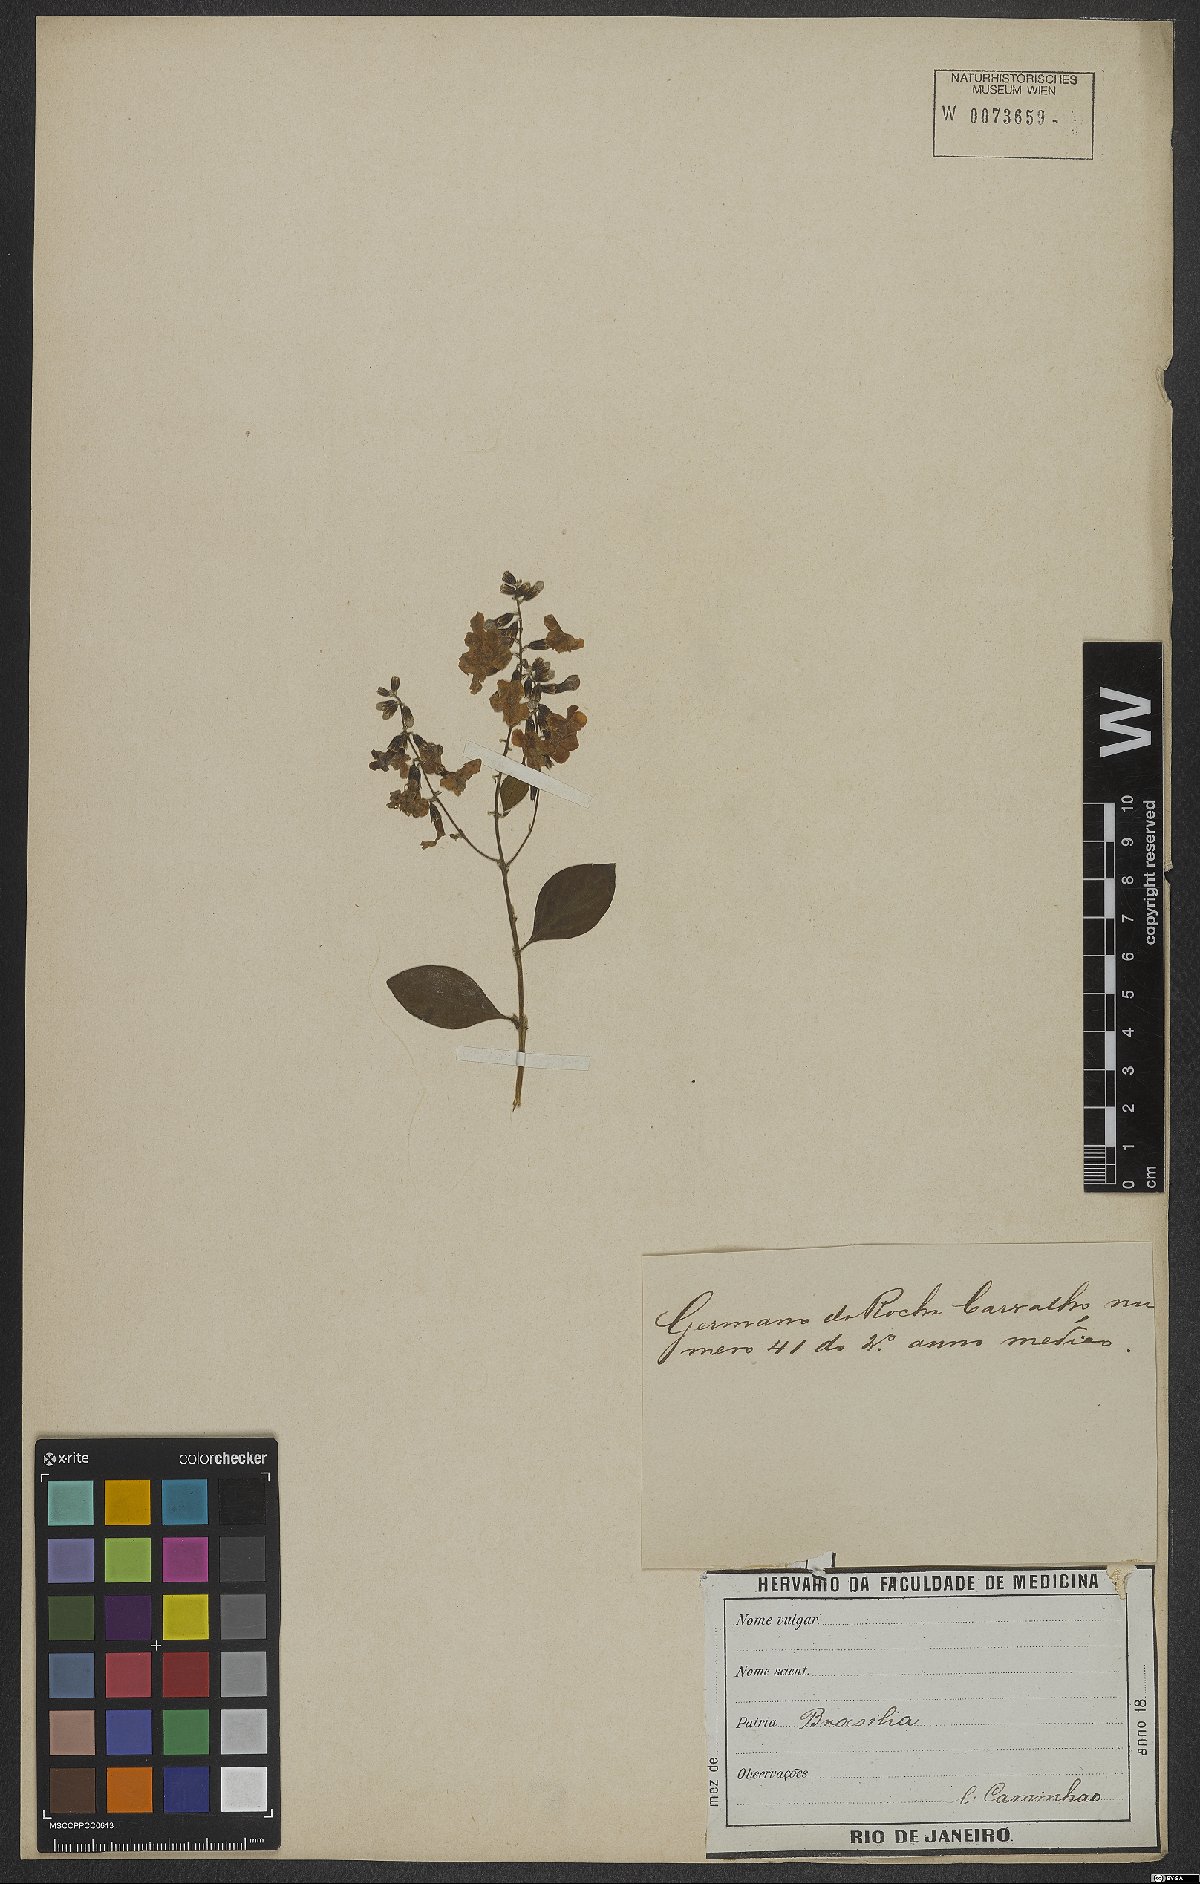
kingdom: Plantae
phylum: Tracheophyta
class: Magnoliopsida
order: Lamiales
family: Verbenaceae
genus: Duranta
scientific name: Duranta erecta
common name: Golden dewdrops
